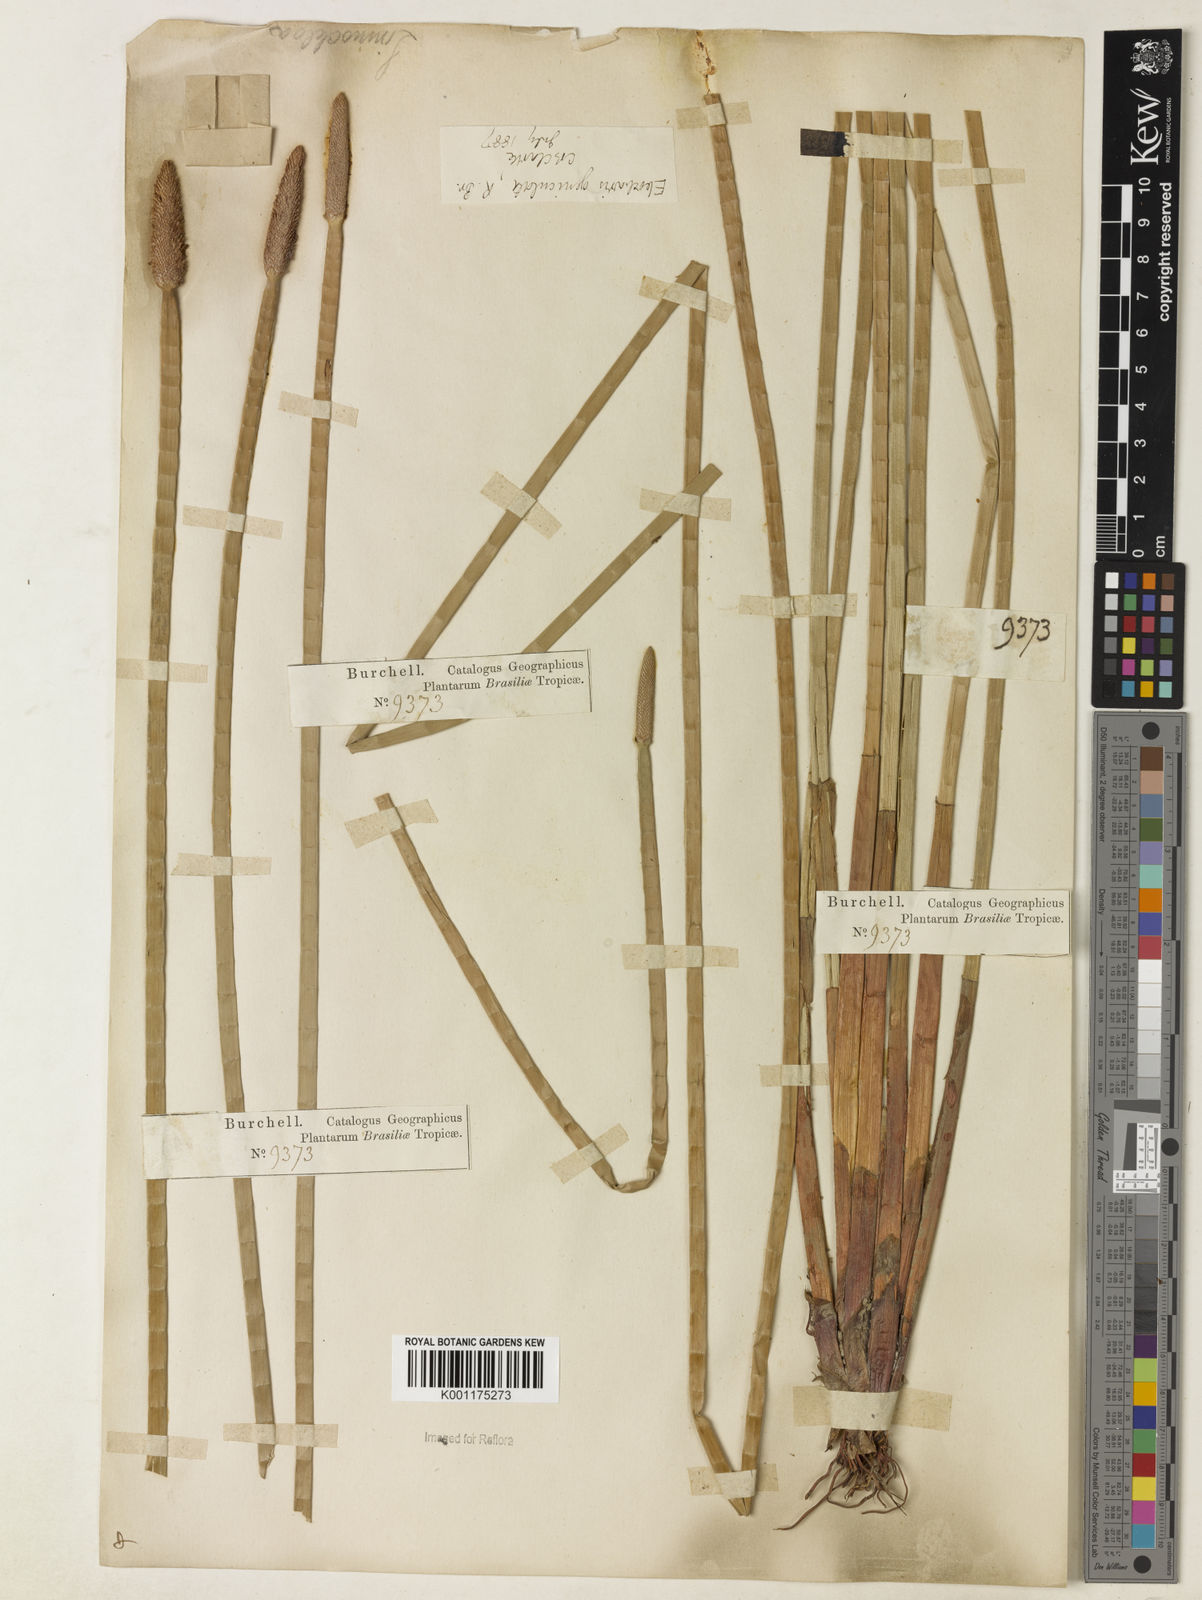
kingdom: Plantae
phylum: Tracheophyta
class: Liliopsida
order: Poales
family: Cyperaceae
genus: Eleocharis
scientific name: Eleocharis geniculata
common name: Canada spikesedge
